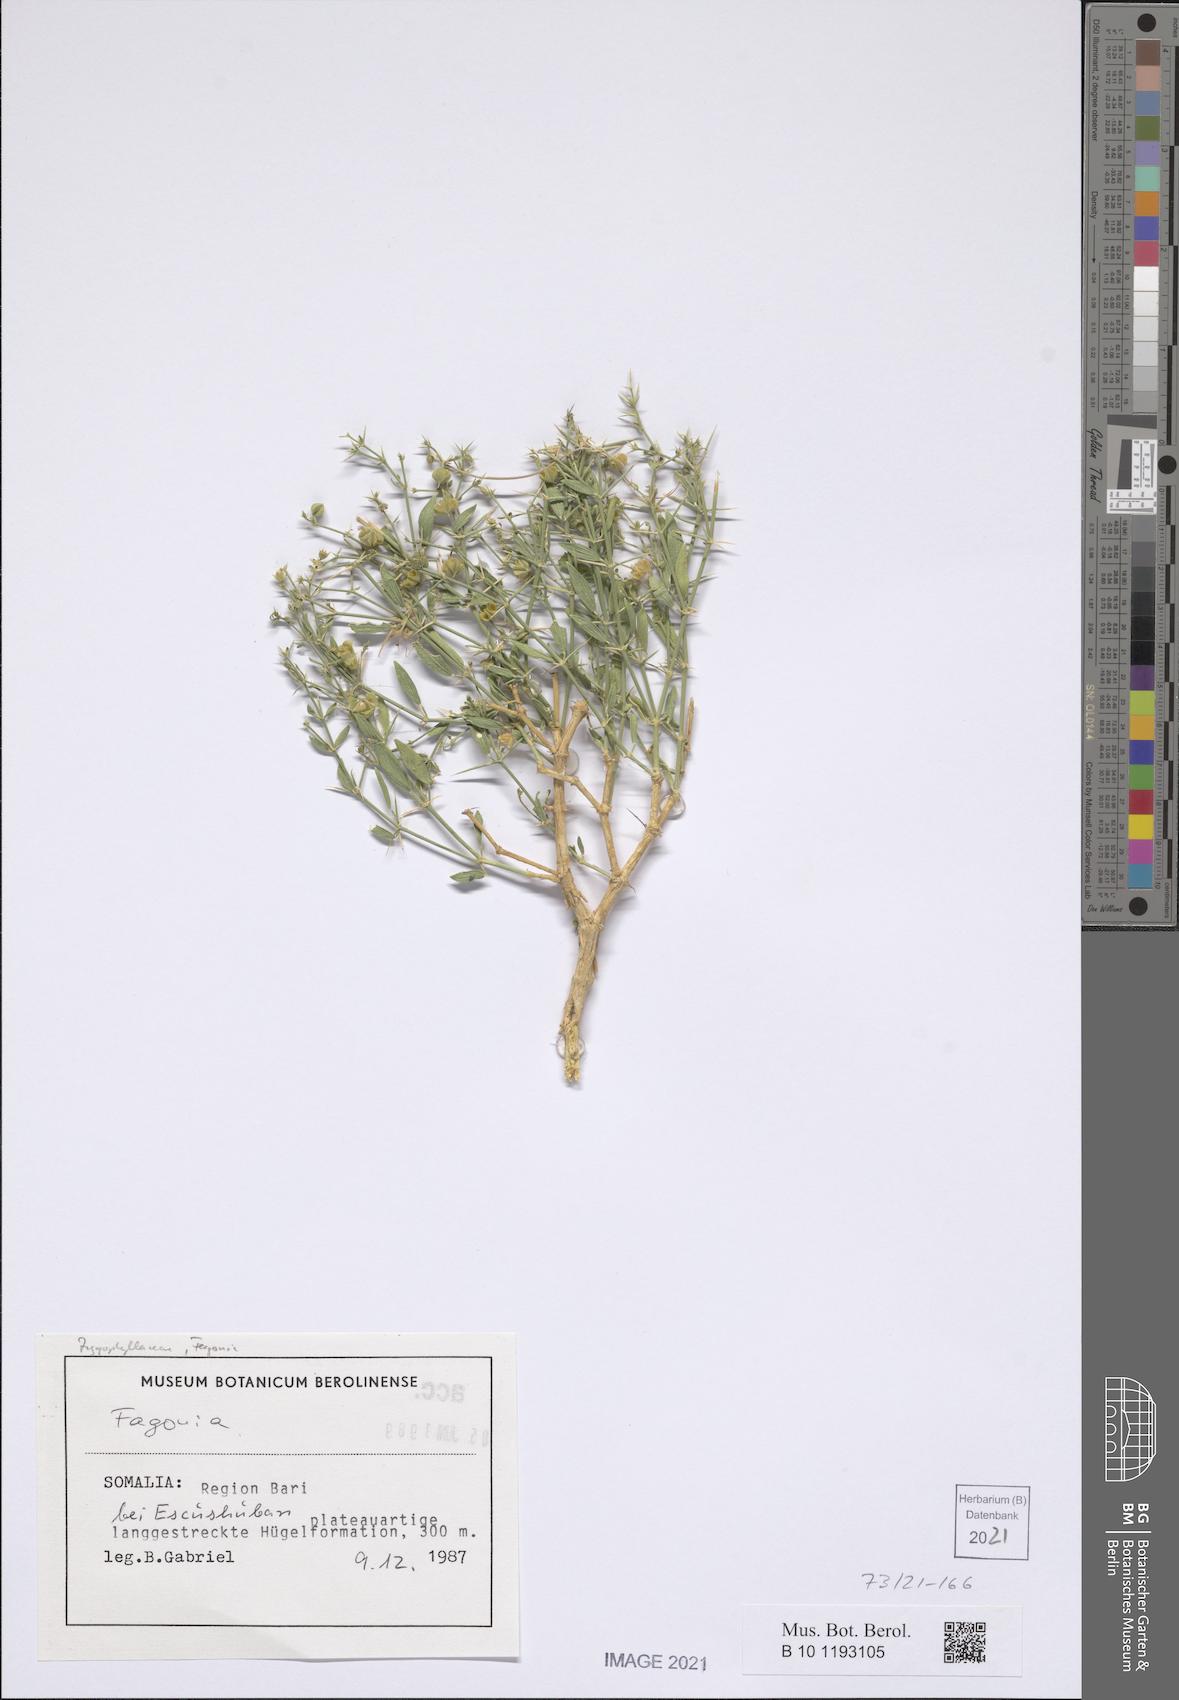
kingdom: Plantae
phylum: Tracheophyta
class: Magnoliopsida
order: Zygophyllales
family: Zygophyllaceae
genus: Fagonia
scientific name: Fagonia
